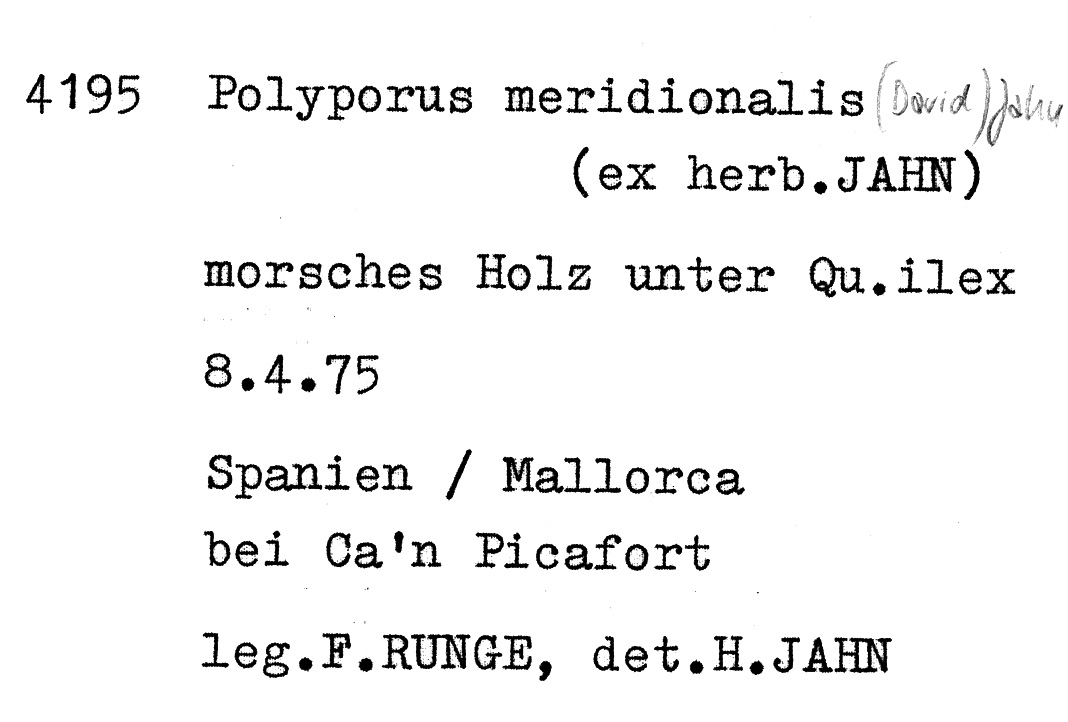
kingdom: Fungi
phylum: Basidiomycota
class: Agaricomycetes
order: Polyporales
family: Polyporaceae
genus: Cerioporus
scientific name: Cerioporus meridionalis
